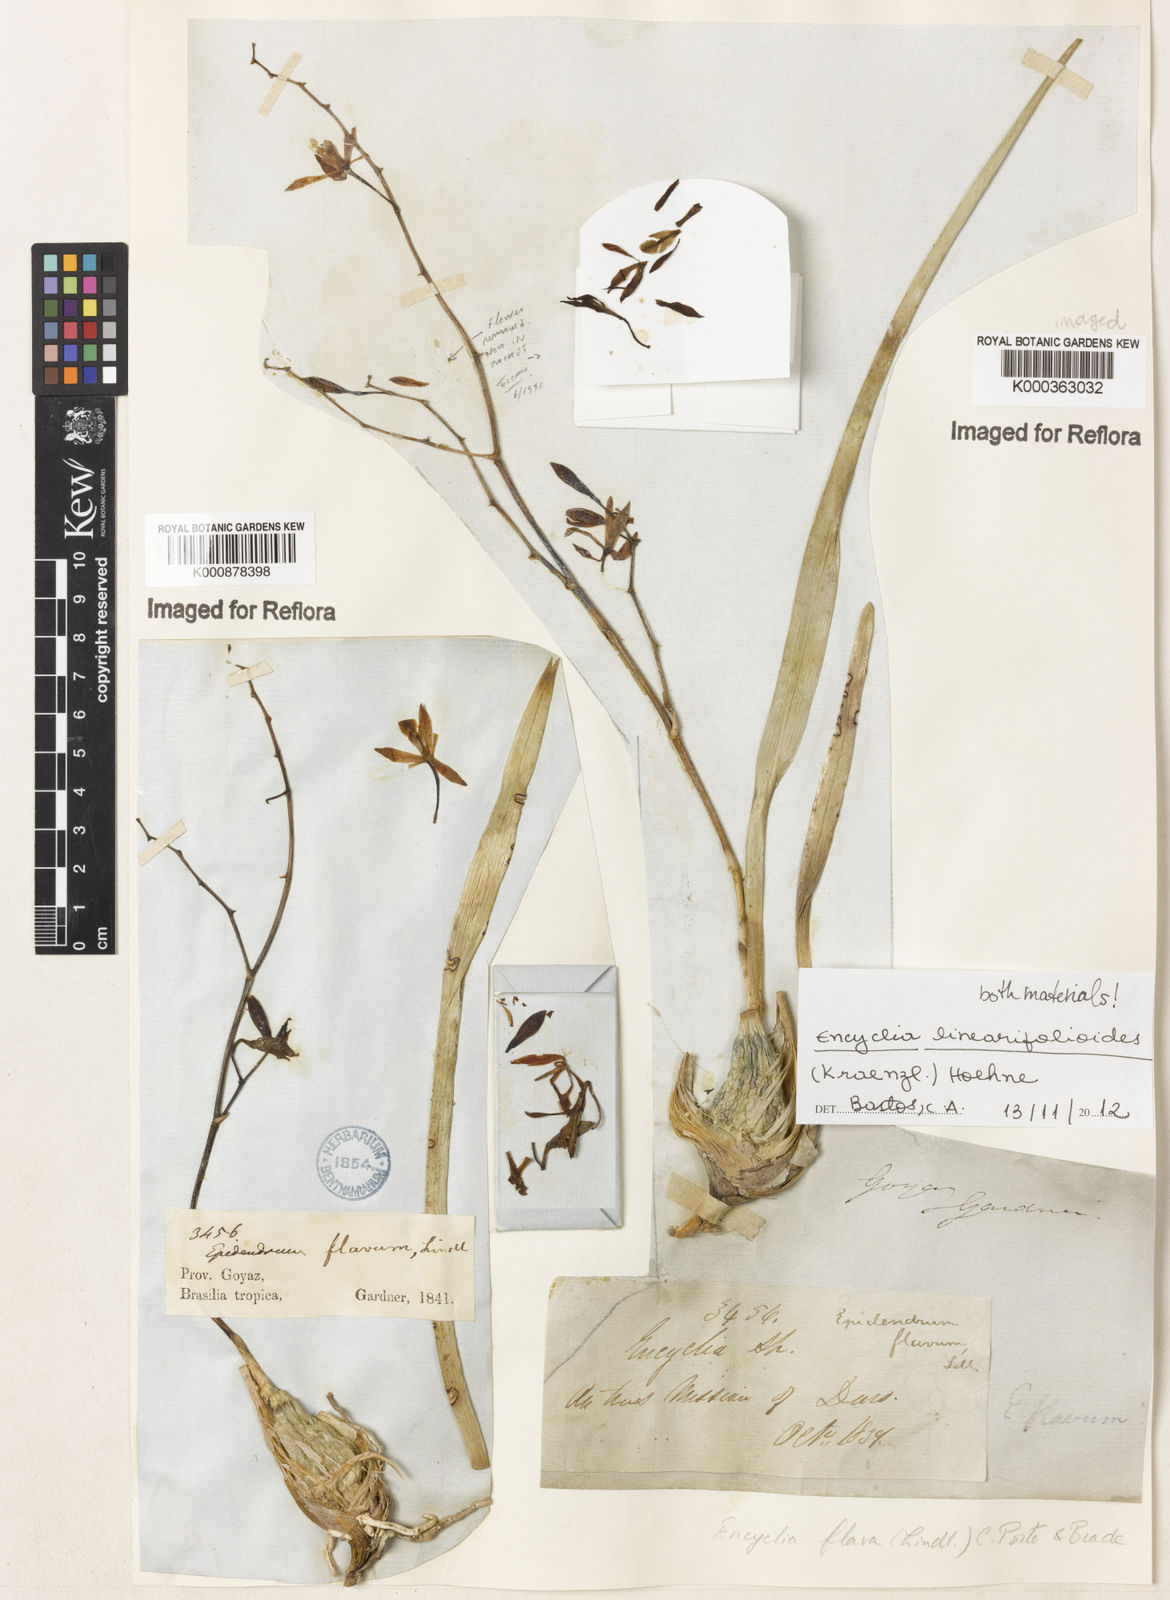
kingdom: Plantae
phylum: Tracheophyta
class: Liliopsida
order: Asparagales
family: Orchidaceae
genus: Encyclia
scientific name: Encyclia patens
